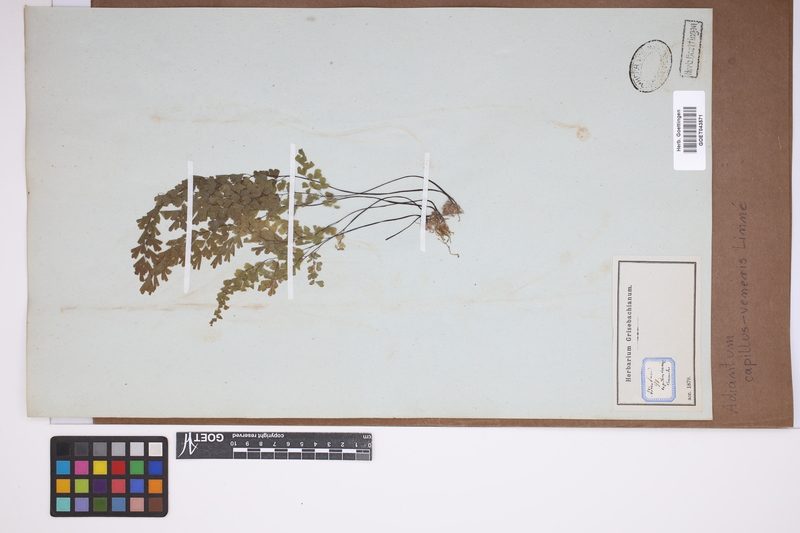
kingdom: Plantae
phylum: Tracheophyta
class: Polypodiopsida
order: Polypodiales
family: Pteridaceae
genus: Adiantum
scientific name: Adiantum capillus-veneris
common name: Maidenhair fern
